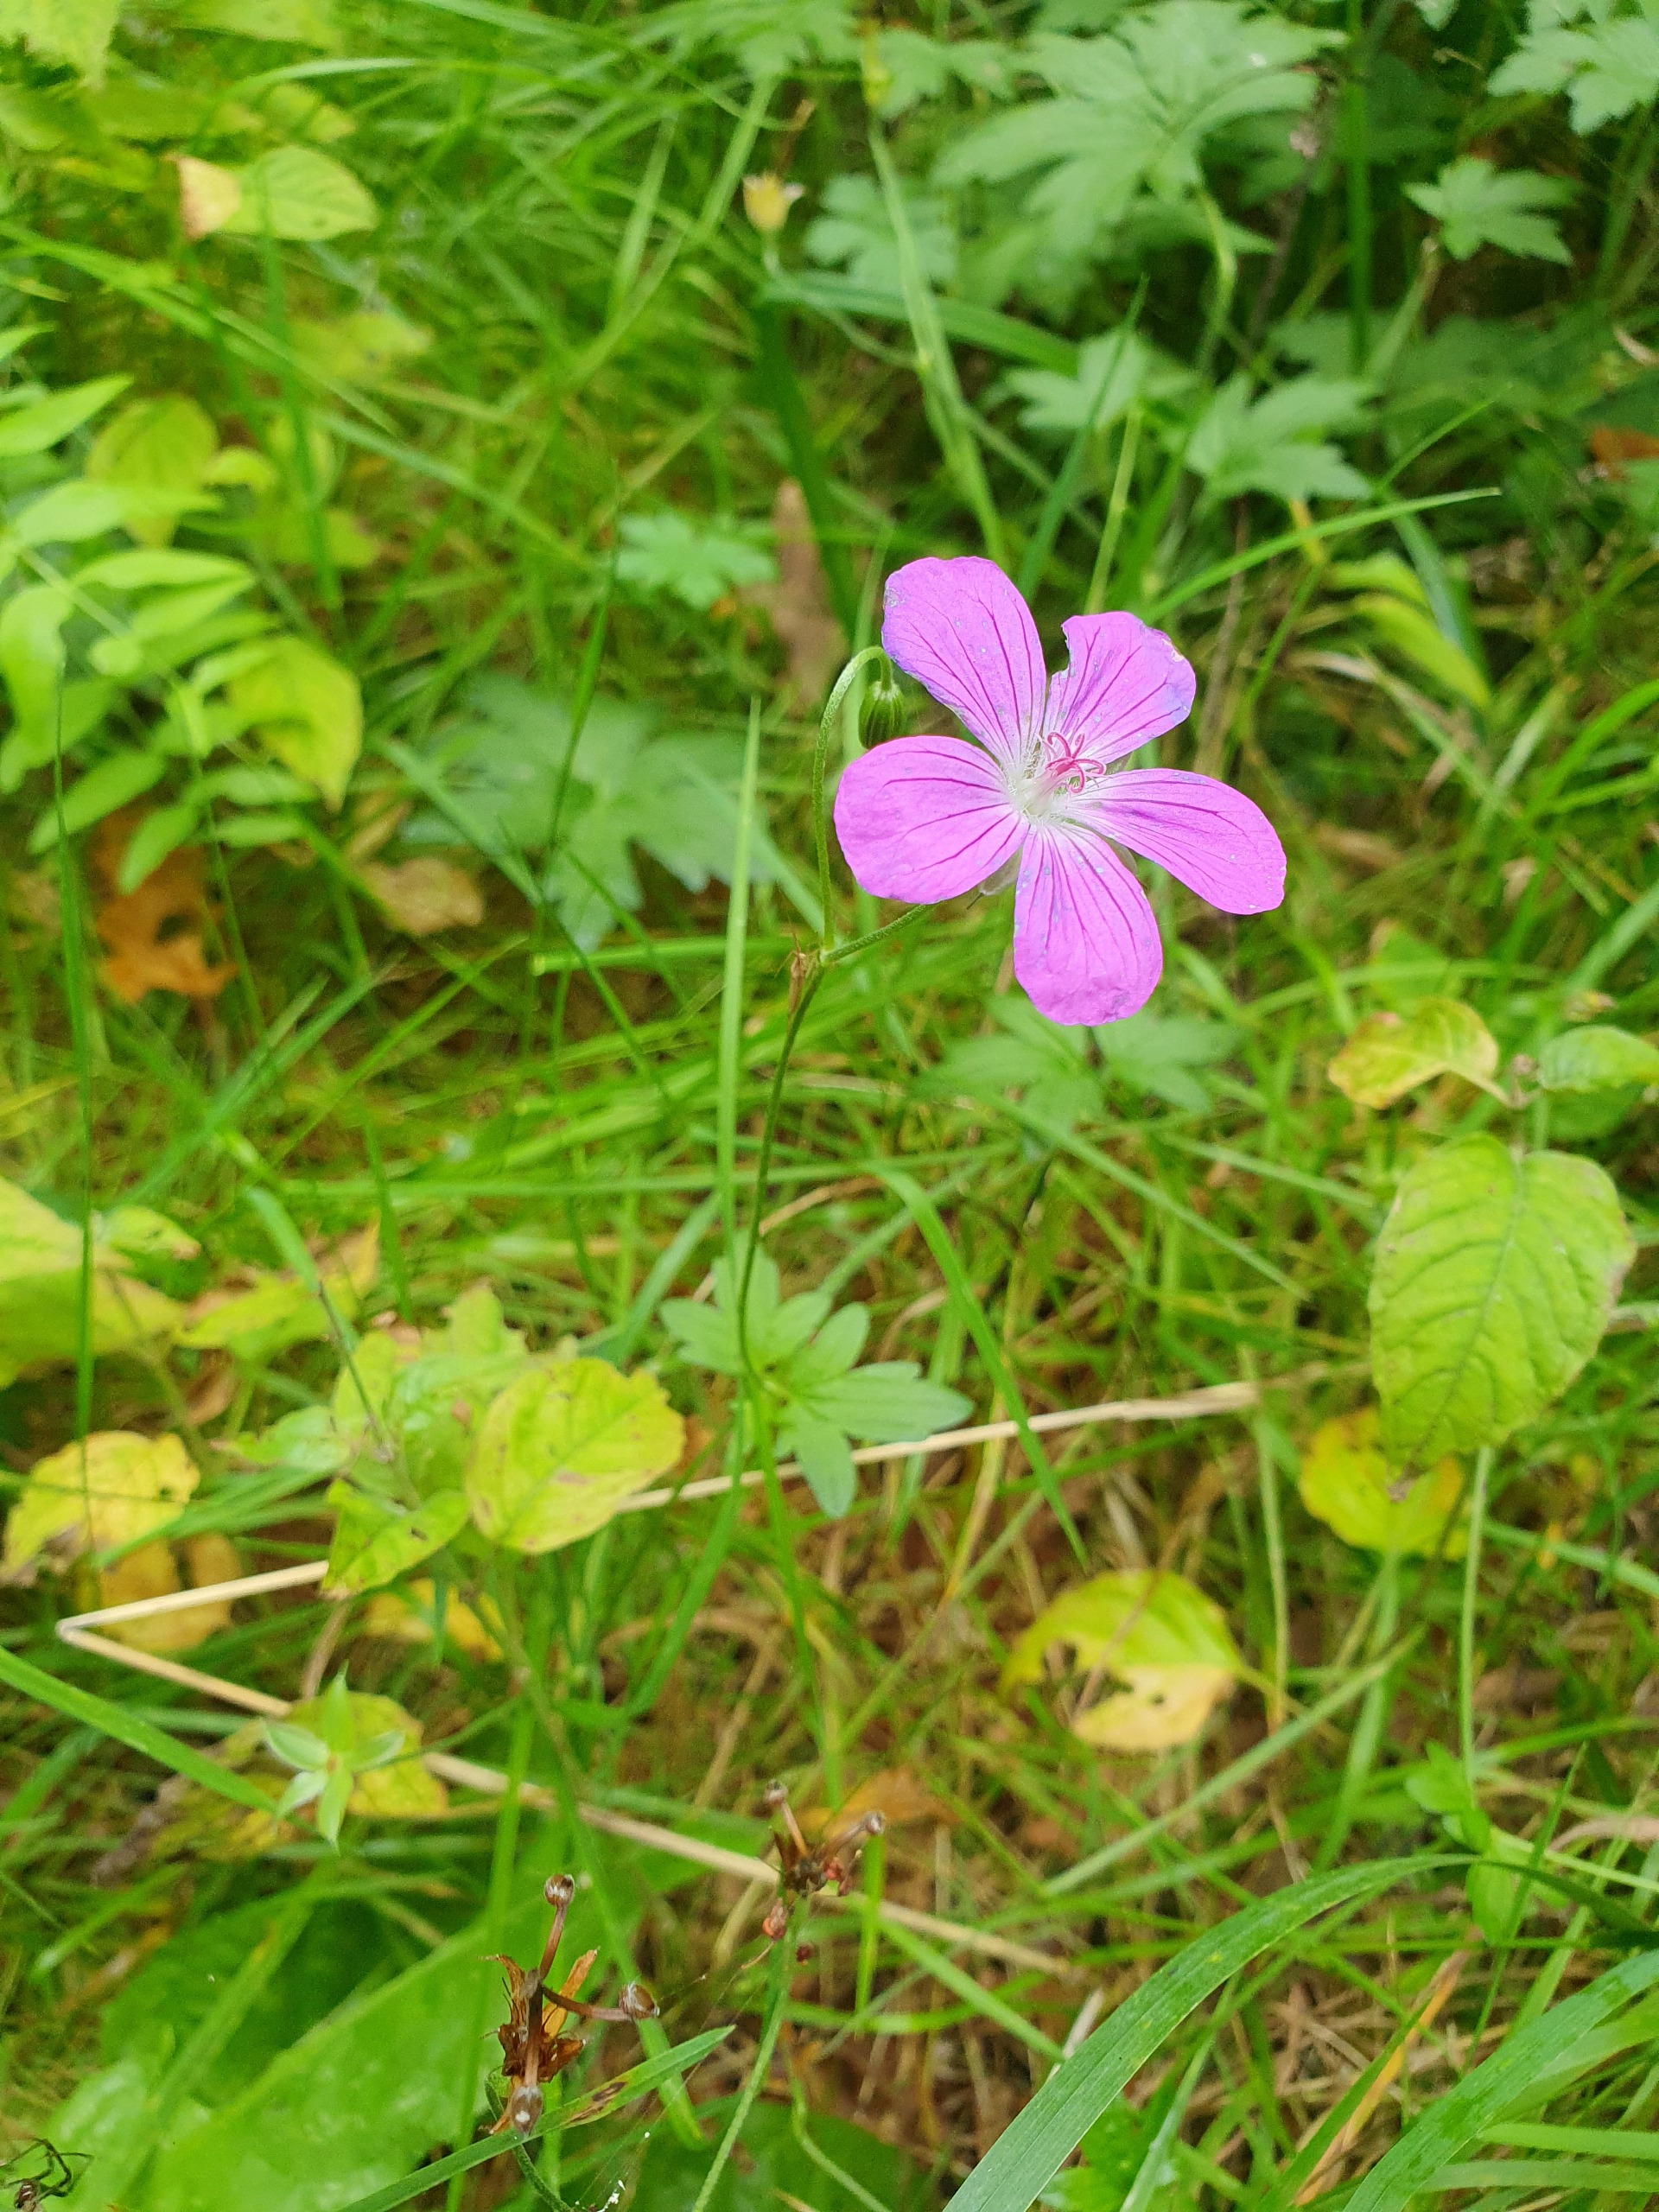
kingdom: Plantae
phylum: Tracheophyta
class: Magnoliopsida
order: Geraniales
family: Geraniaceae
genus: Geranium
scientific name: Geranium palustre
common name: Kær-storkenæb
